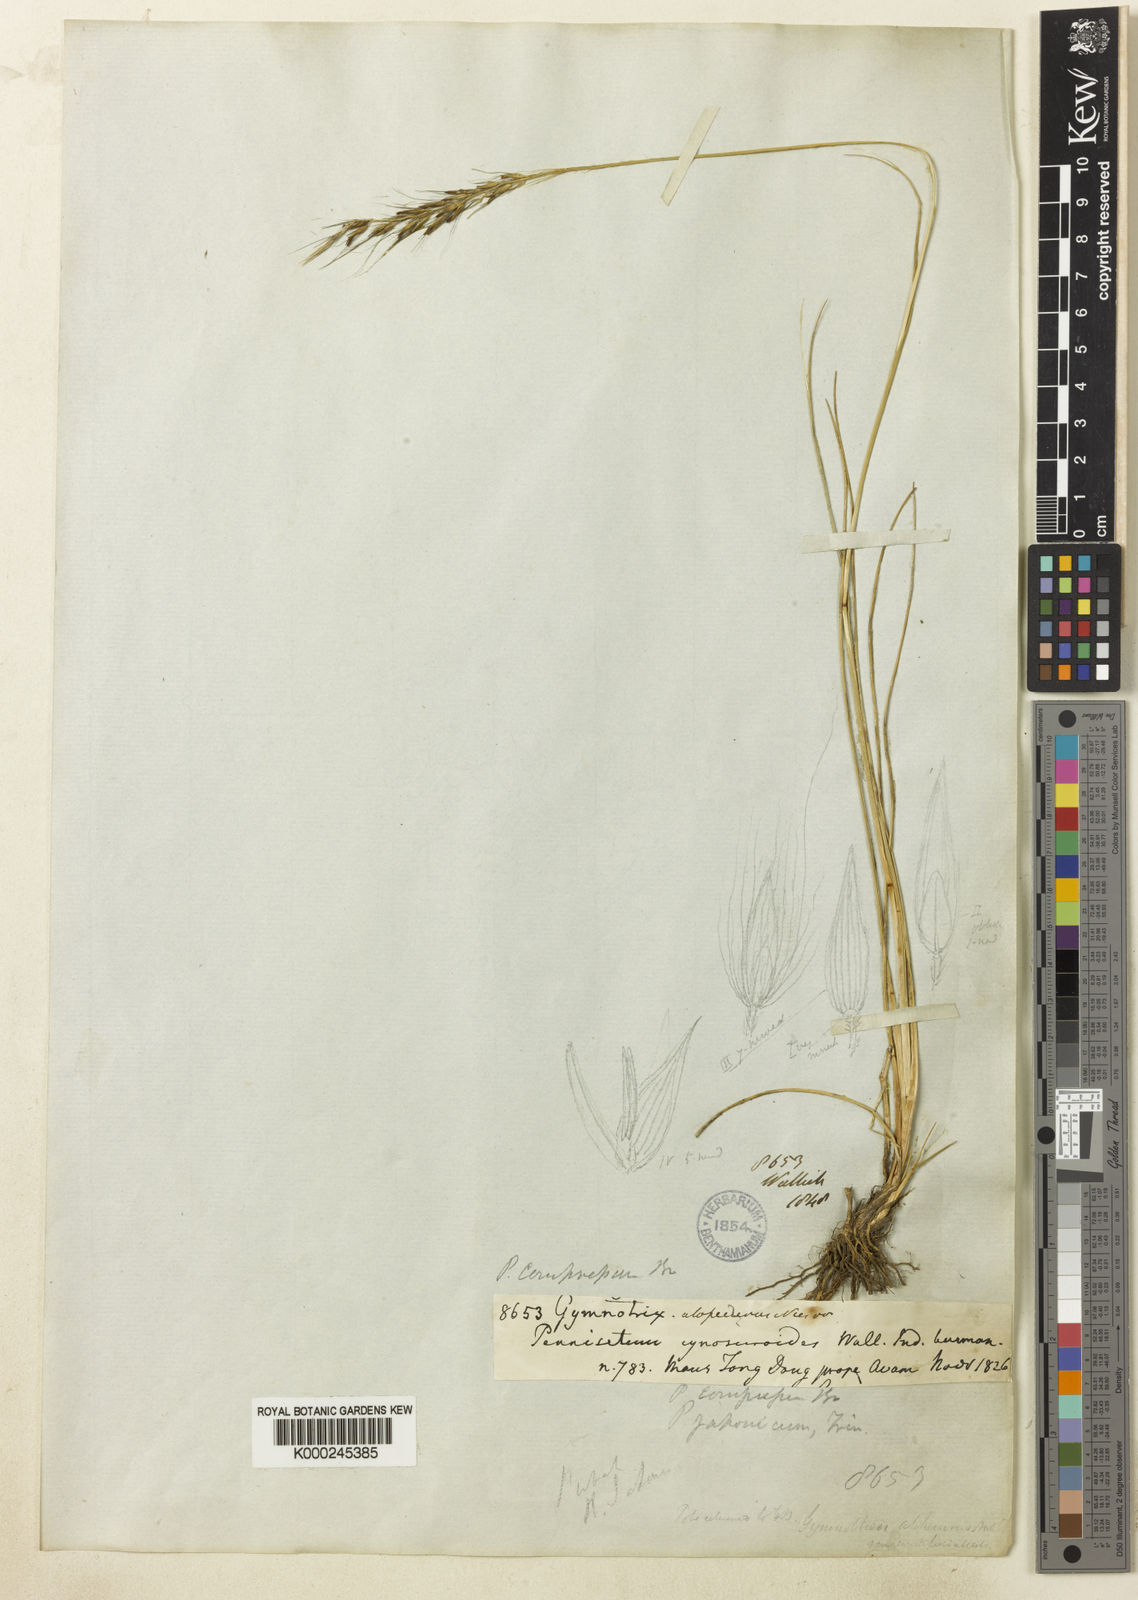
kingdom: Plantae
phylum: Tracheophyta
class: Liliopsida
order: Poales
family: Poaceae
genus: Cenchrus
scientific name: Cenchrus Pennisetum spec
